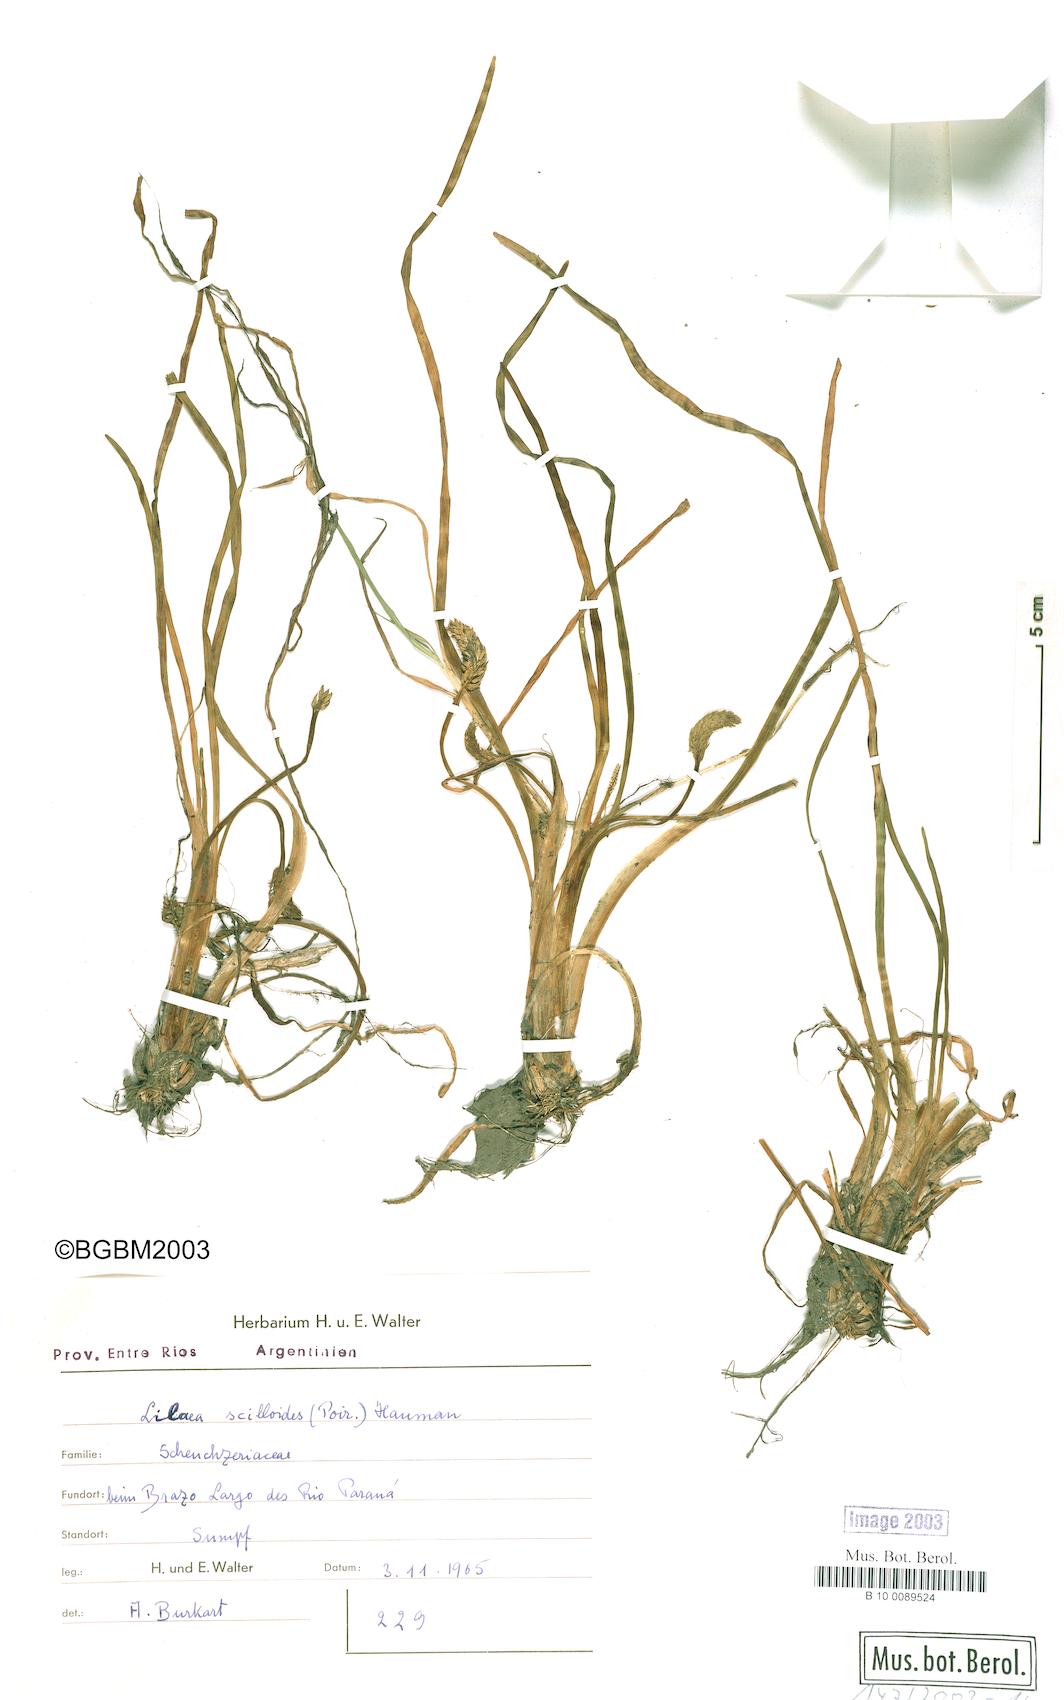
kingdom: Plantae
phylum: Tracheophyta
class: Liliopsida
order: Alismatales
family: Juncaginaceae
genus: Triglochin
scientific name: Triglochin scilloides
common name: Awl-leaved lilaea
